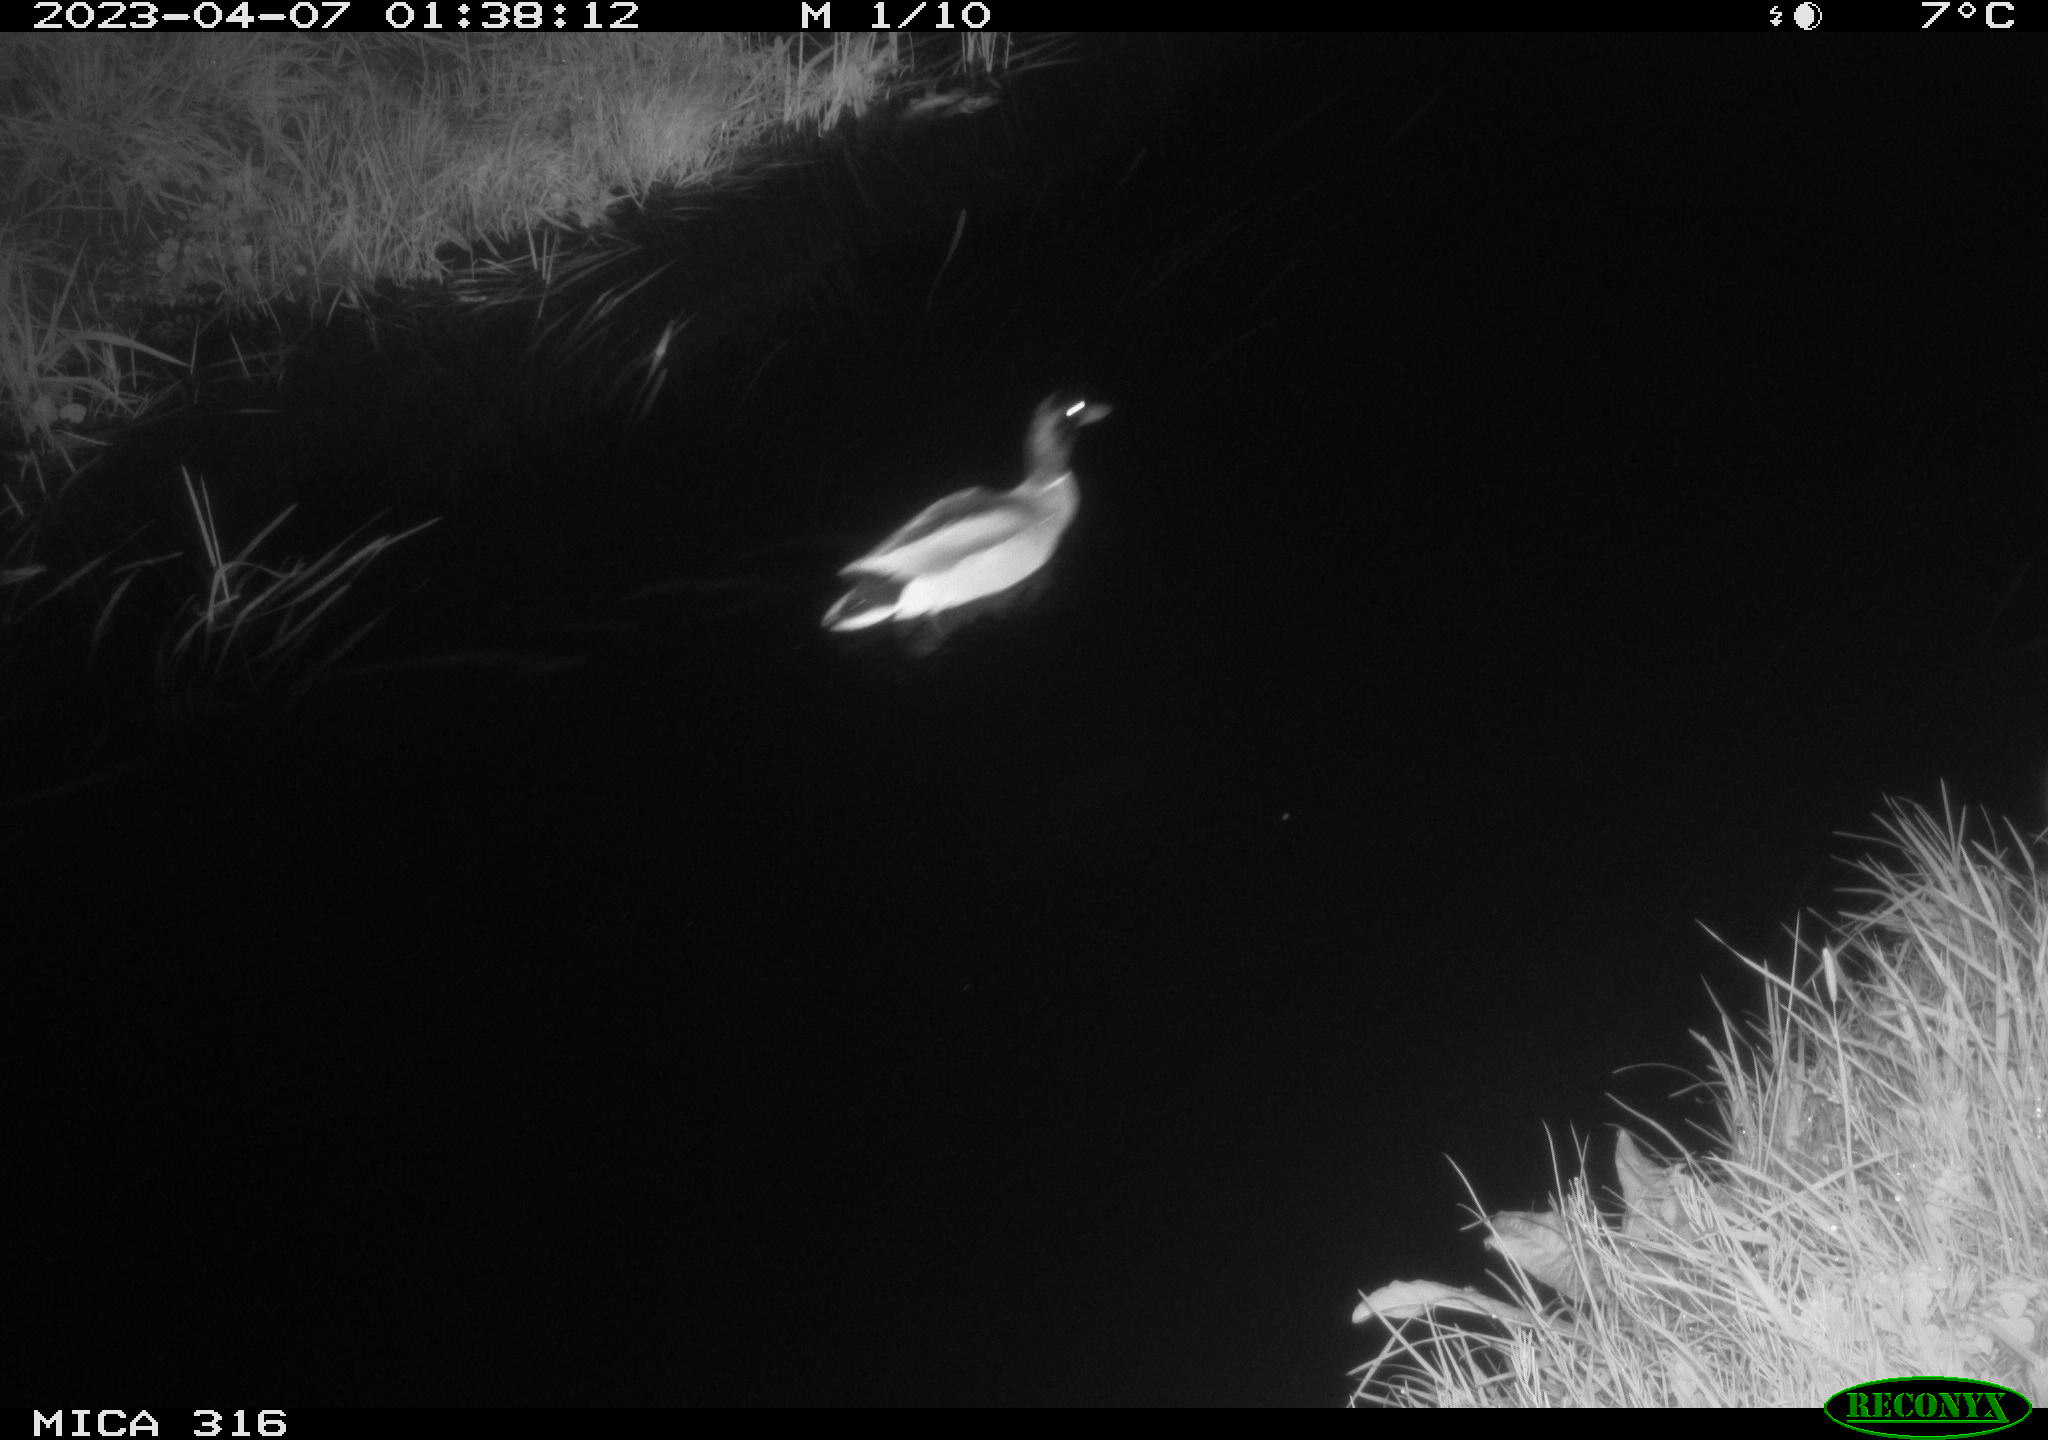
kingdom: Animalia
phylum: Chordata
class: Aves
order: Anseriformes
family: Anatidae
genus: Anas
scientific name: Anas
